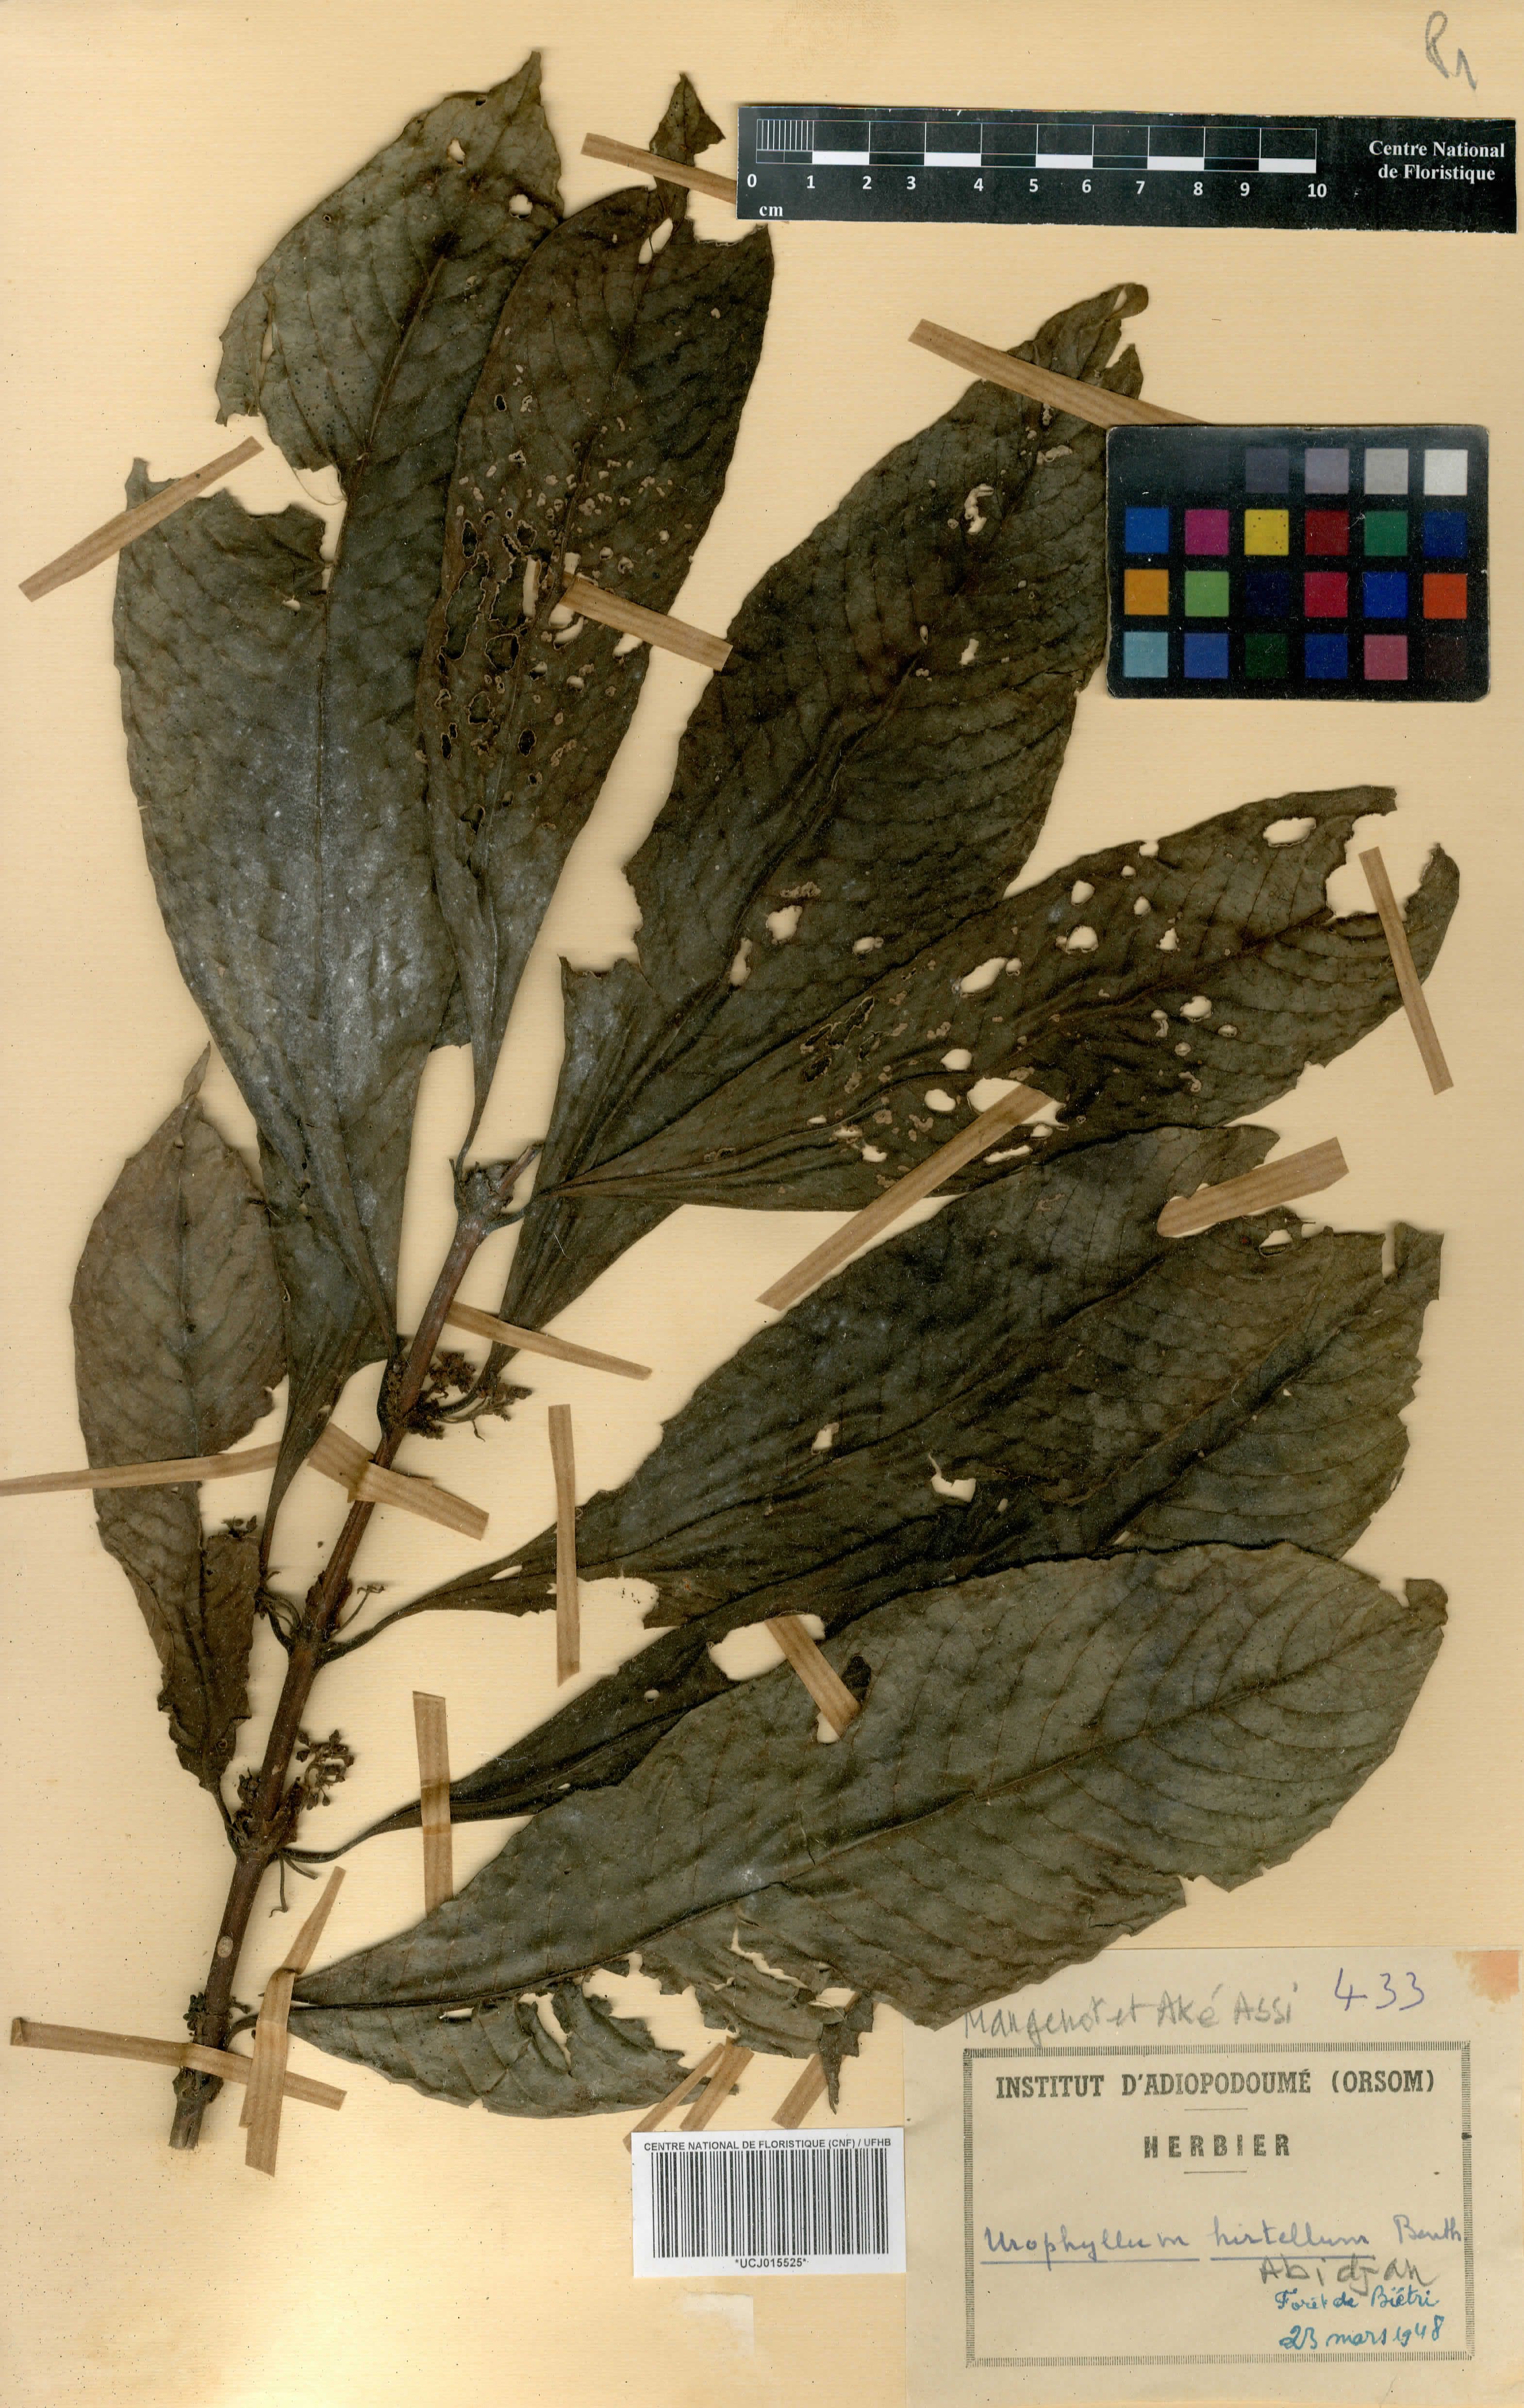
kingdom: Plantae
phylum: Tracheophyta
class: Magnoliopsida
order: Gentianales
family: Rubiaceae
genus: Pauridiantha
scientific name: Pauridiantha hirtella
